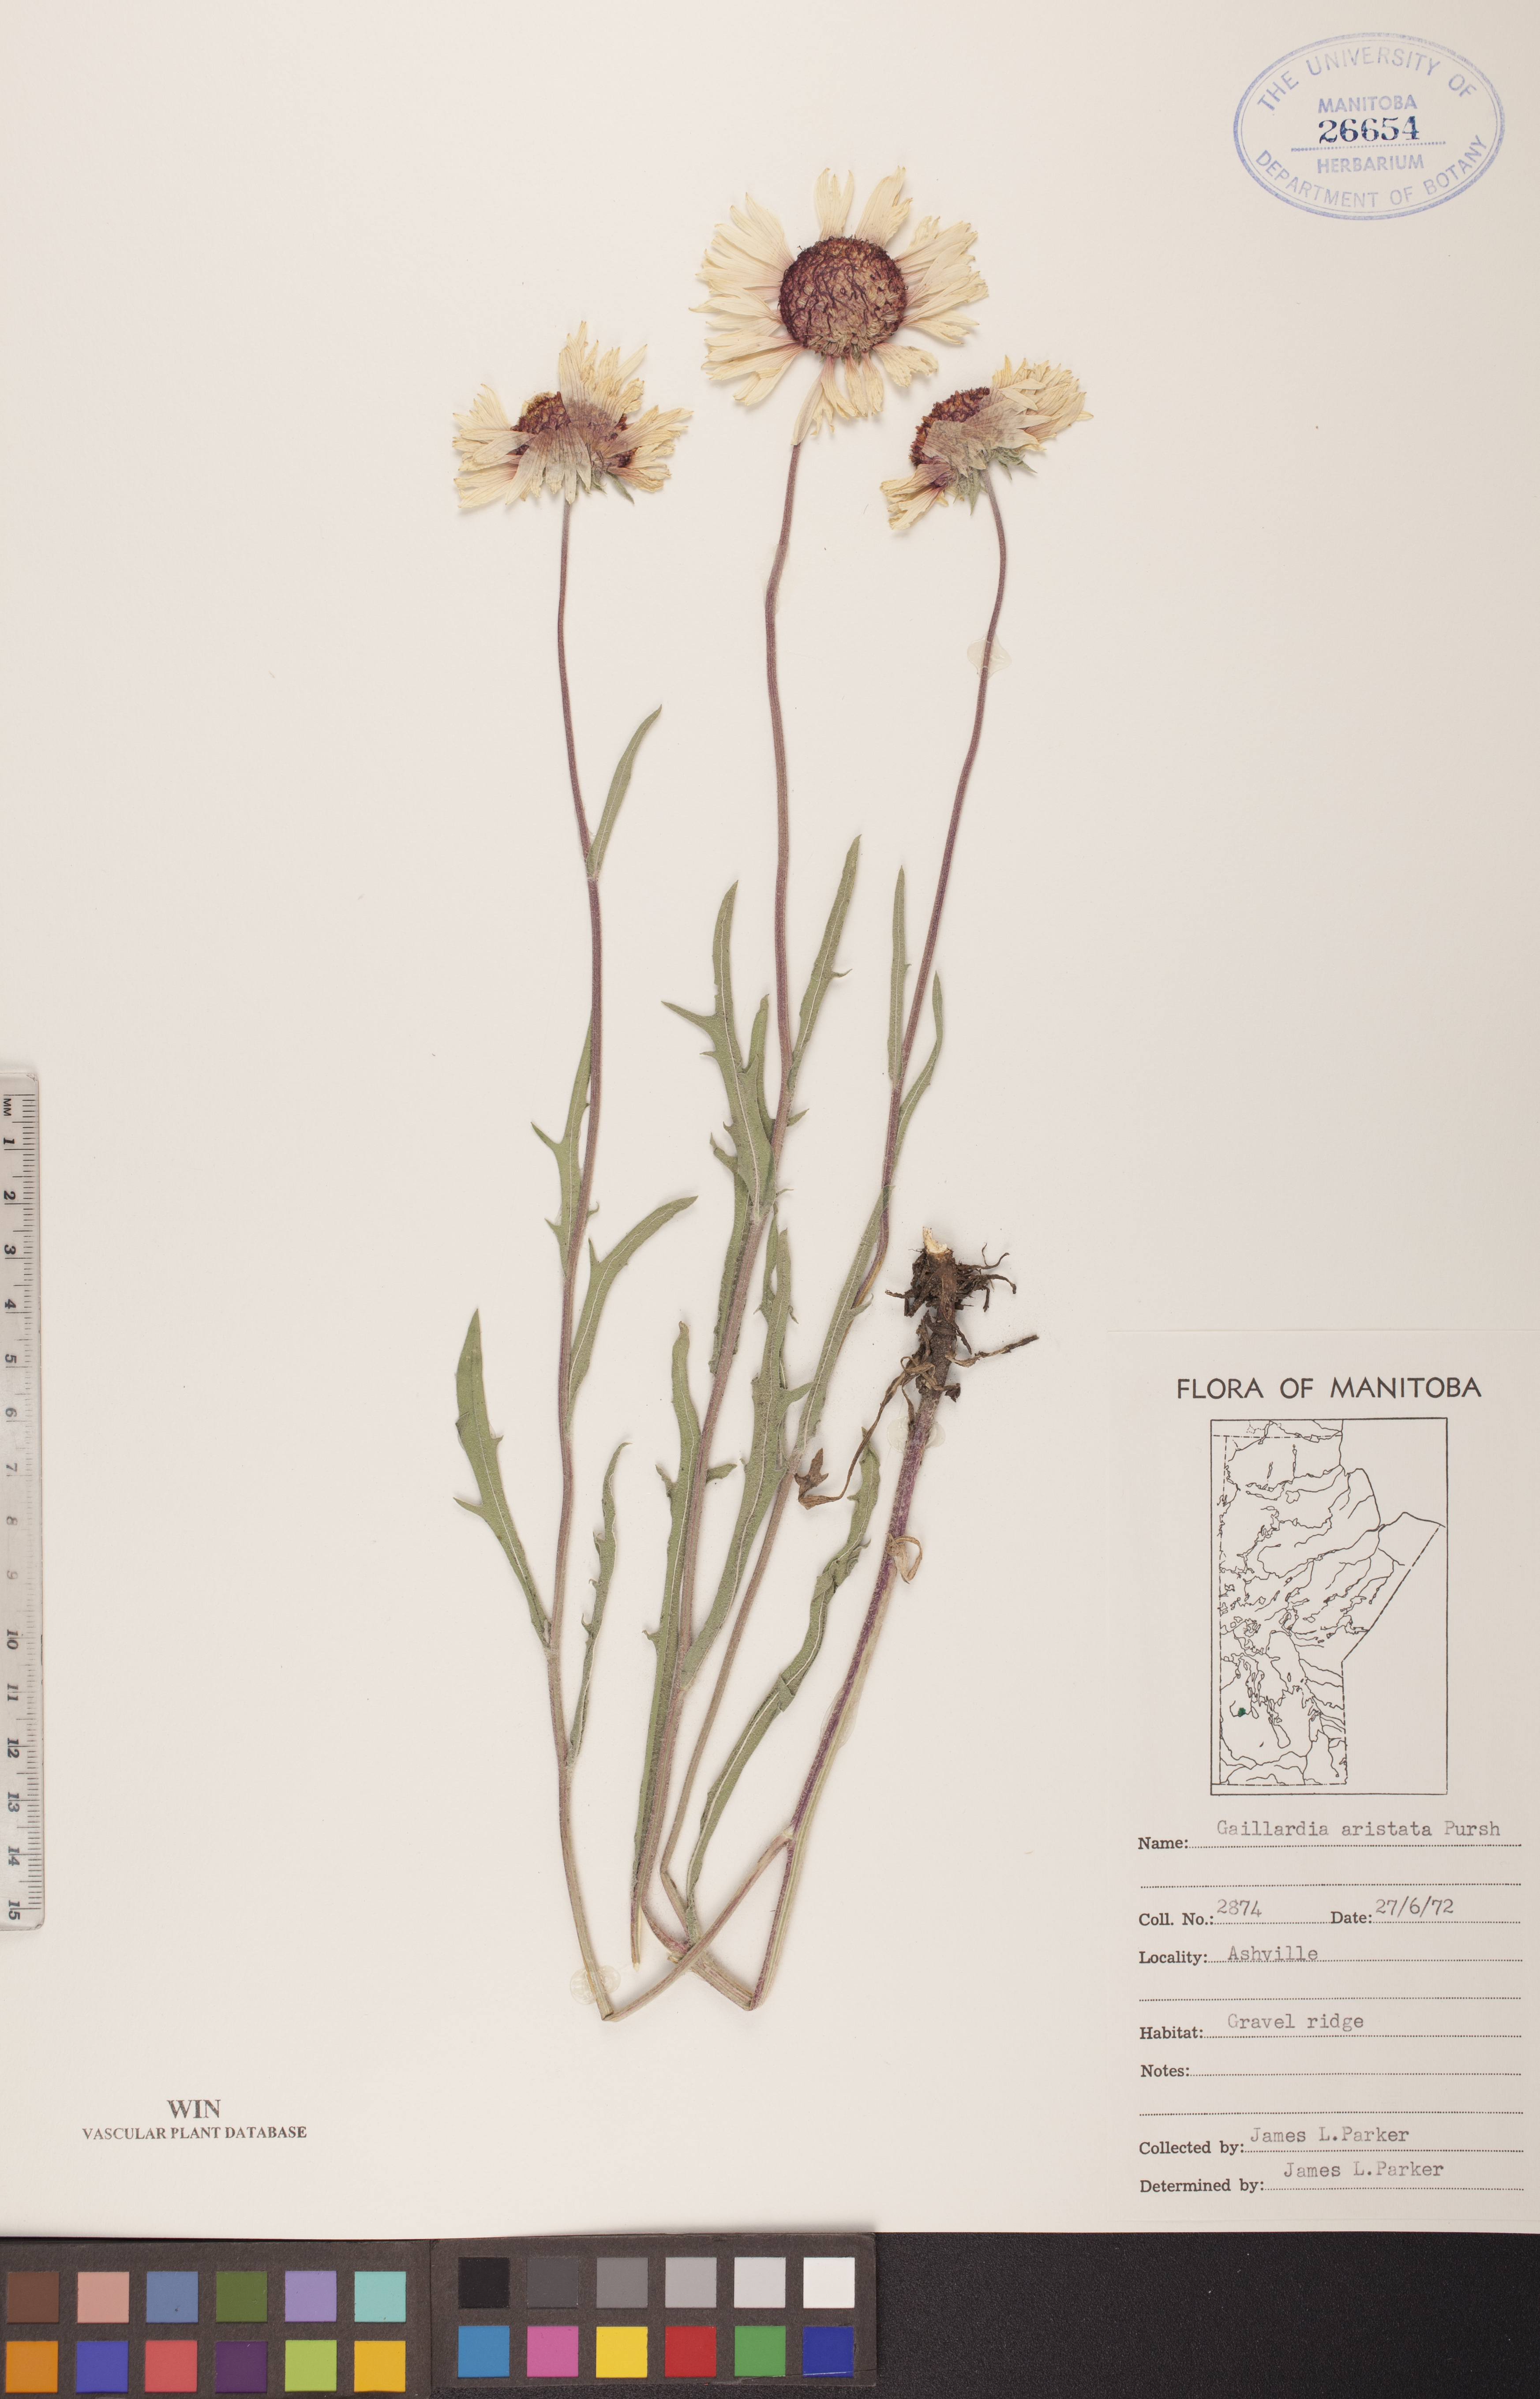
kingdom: Plantae
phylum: Tracheophyta
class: Magnoliopsida
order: Asterales
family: Asteraceae
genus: Gaillardia
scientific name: Gaillardia aristata
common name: Blanket-flower
